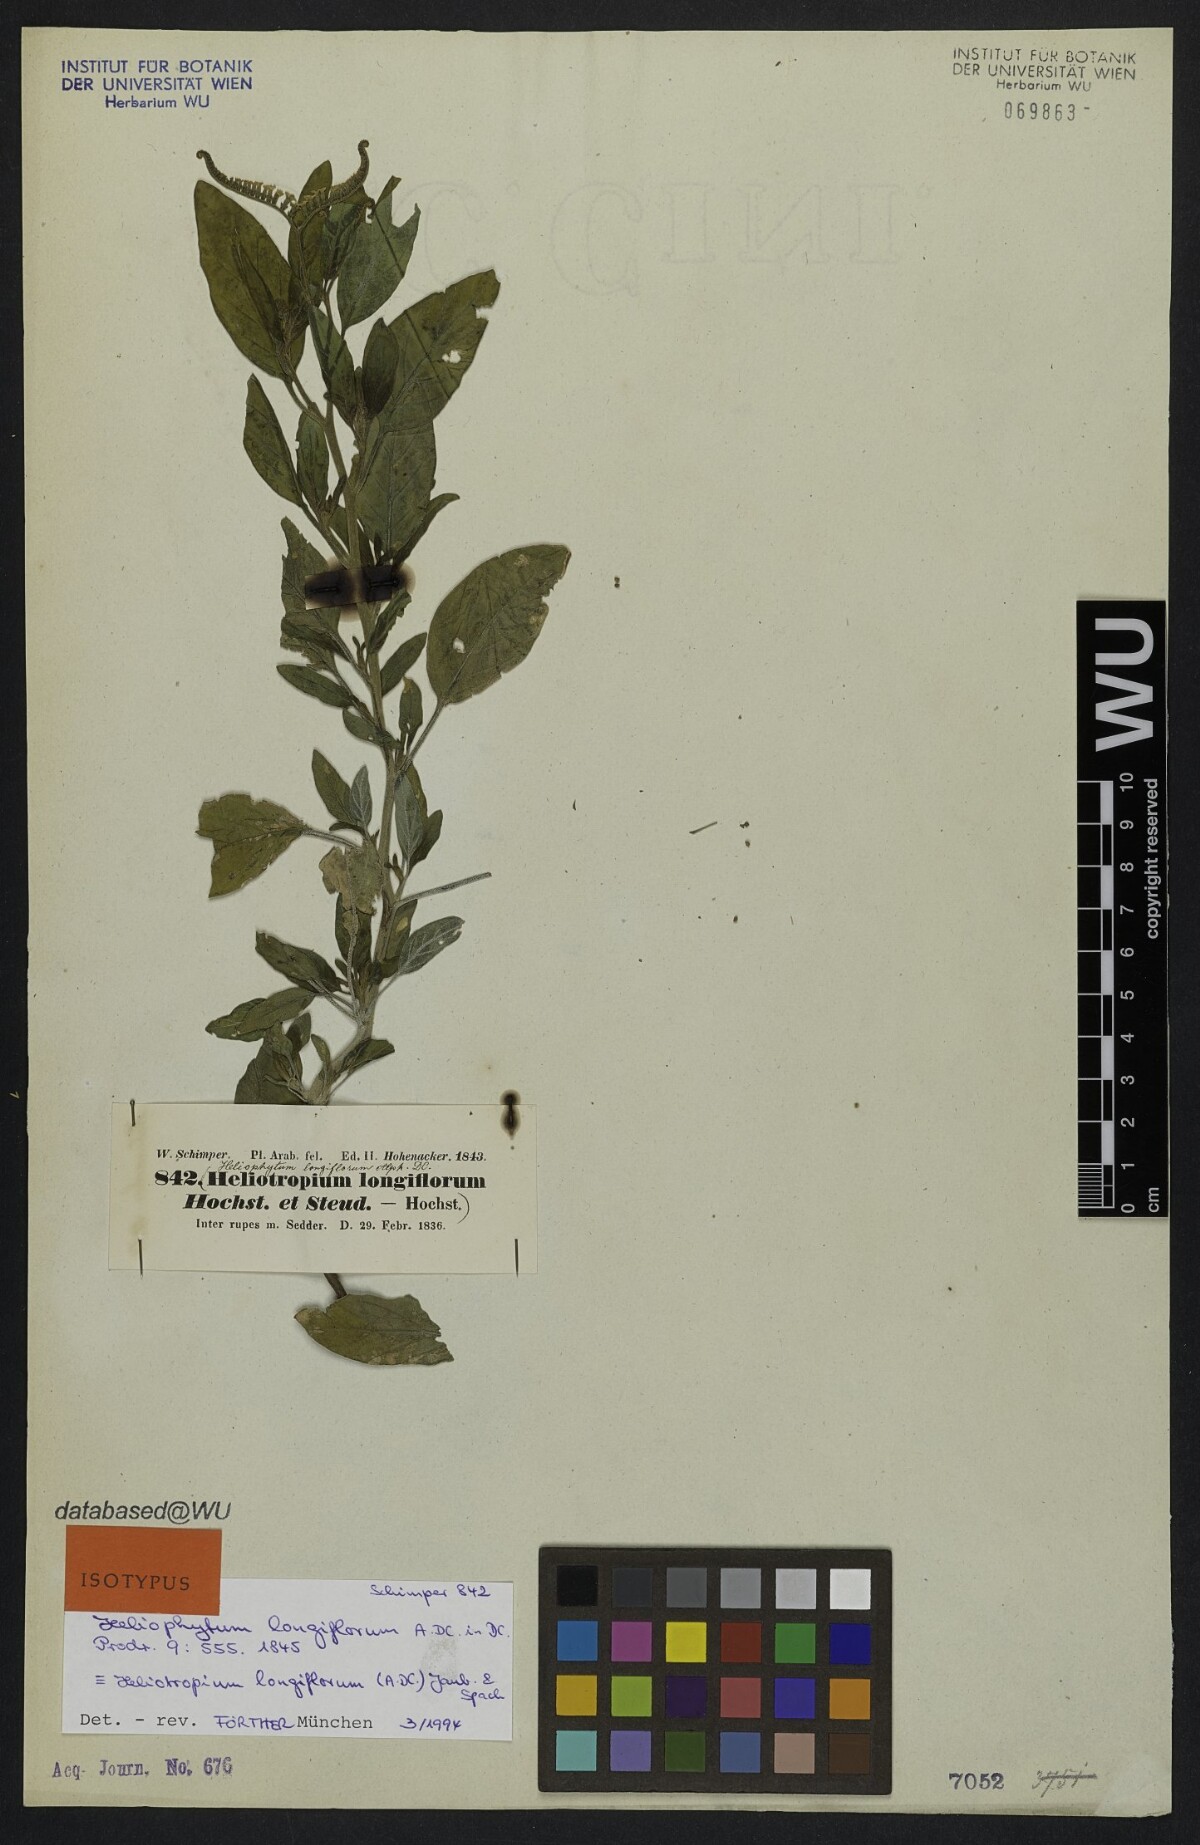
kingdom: Plantae
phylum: Tracheophyta
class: Magnoliopsida
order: Boraginales
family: Heliotropiaceae
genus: Heliotropium
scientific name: Heliotropium longiflorum
